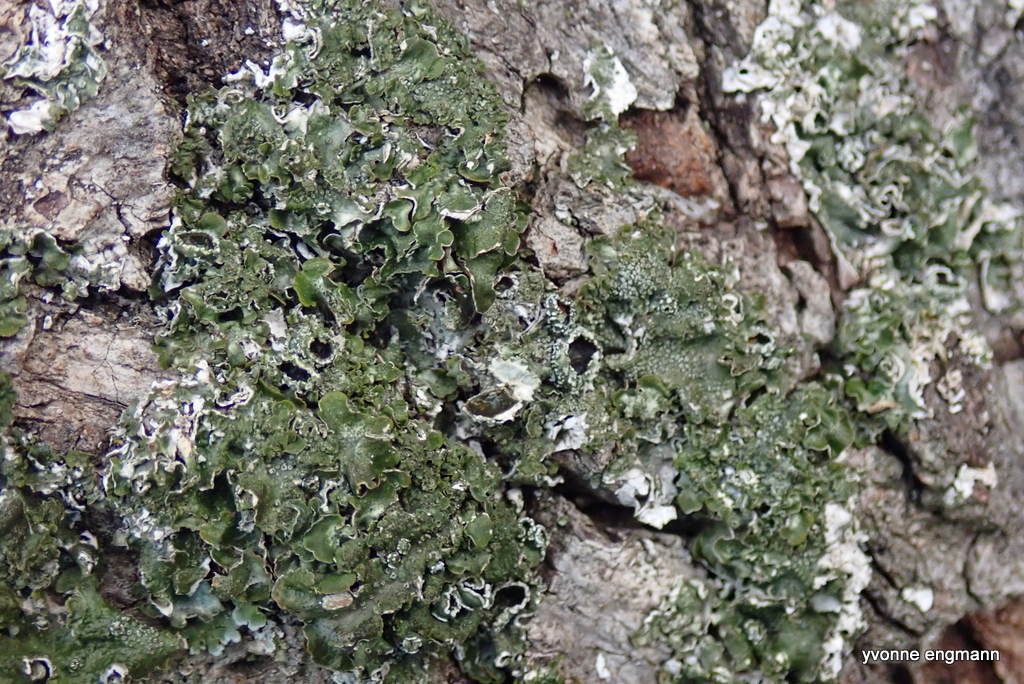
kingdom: Fungi
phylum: Ascomycota
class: Lecanoromycetes
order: Lecanorales
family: Parmeliaceae
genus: Pleurosticta
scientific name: Pleurosticta acetabulum
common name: stor skållav
